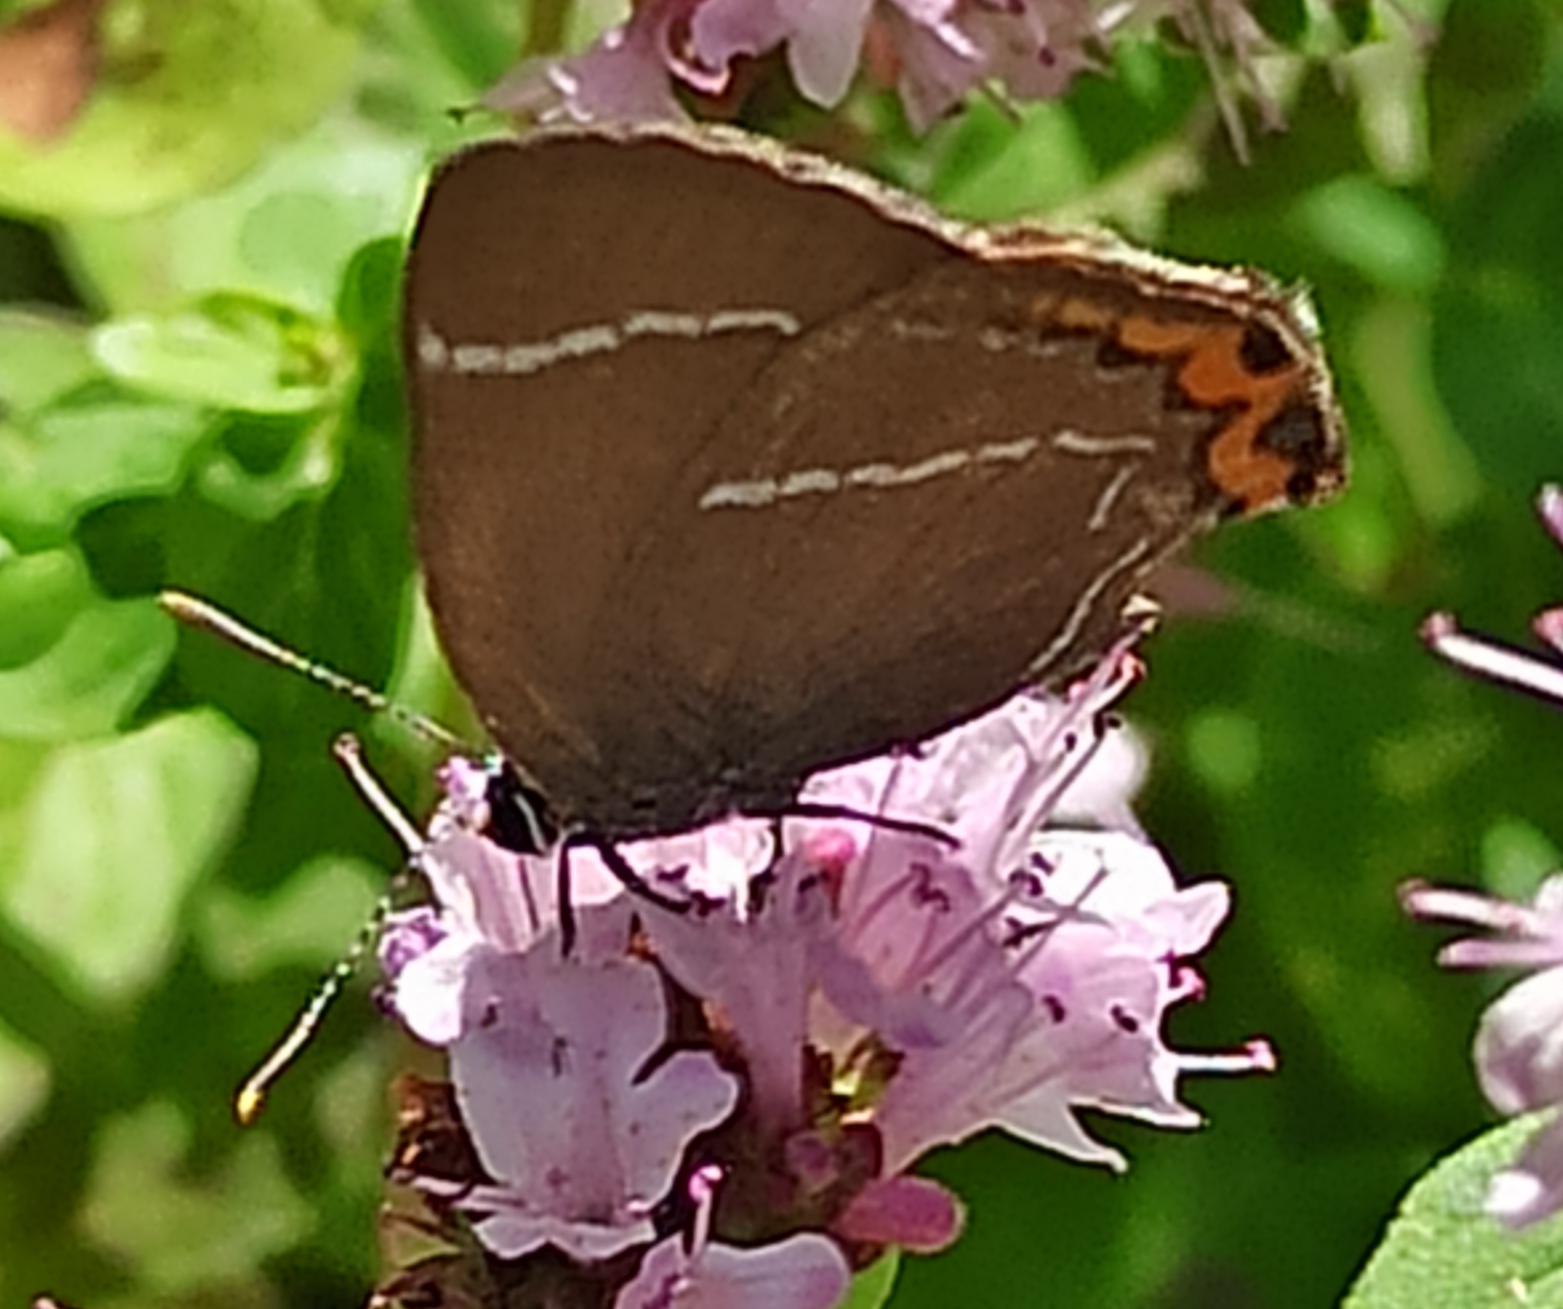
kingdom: Animalia
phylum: Arthropoda
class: Insecta
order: Lepidoptera
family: Lycaenidae
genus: Satyrium
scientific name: Satyrium w-album
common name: Det hvide W
